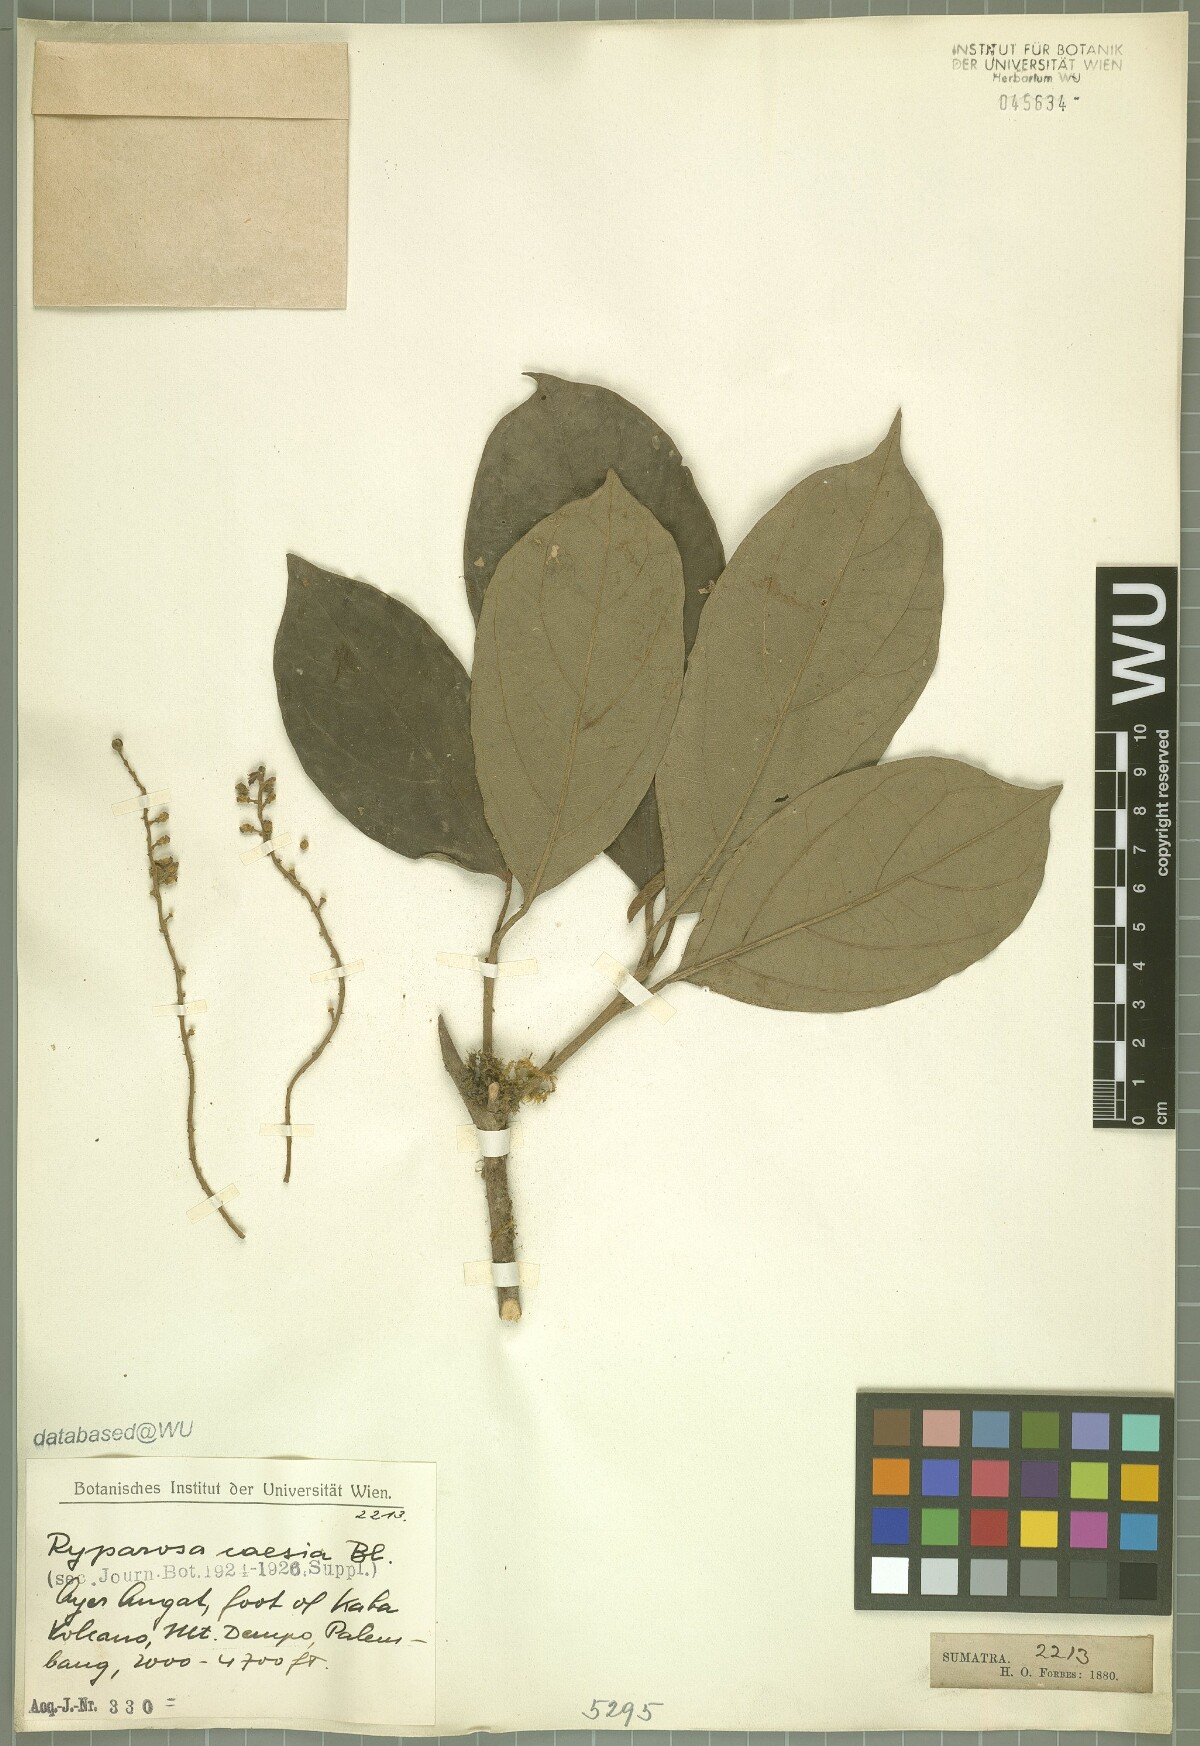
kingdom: Plantae
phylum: Tracheophyta
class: Magnoliopsida
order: Malpighiales
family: Achariaceae
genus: Ryparosa
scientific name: Ryparosa caesia
